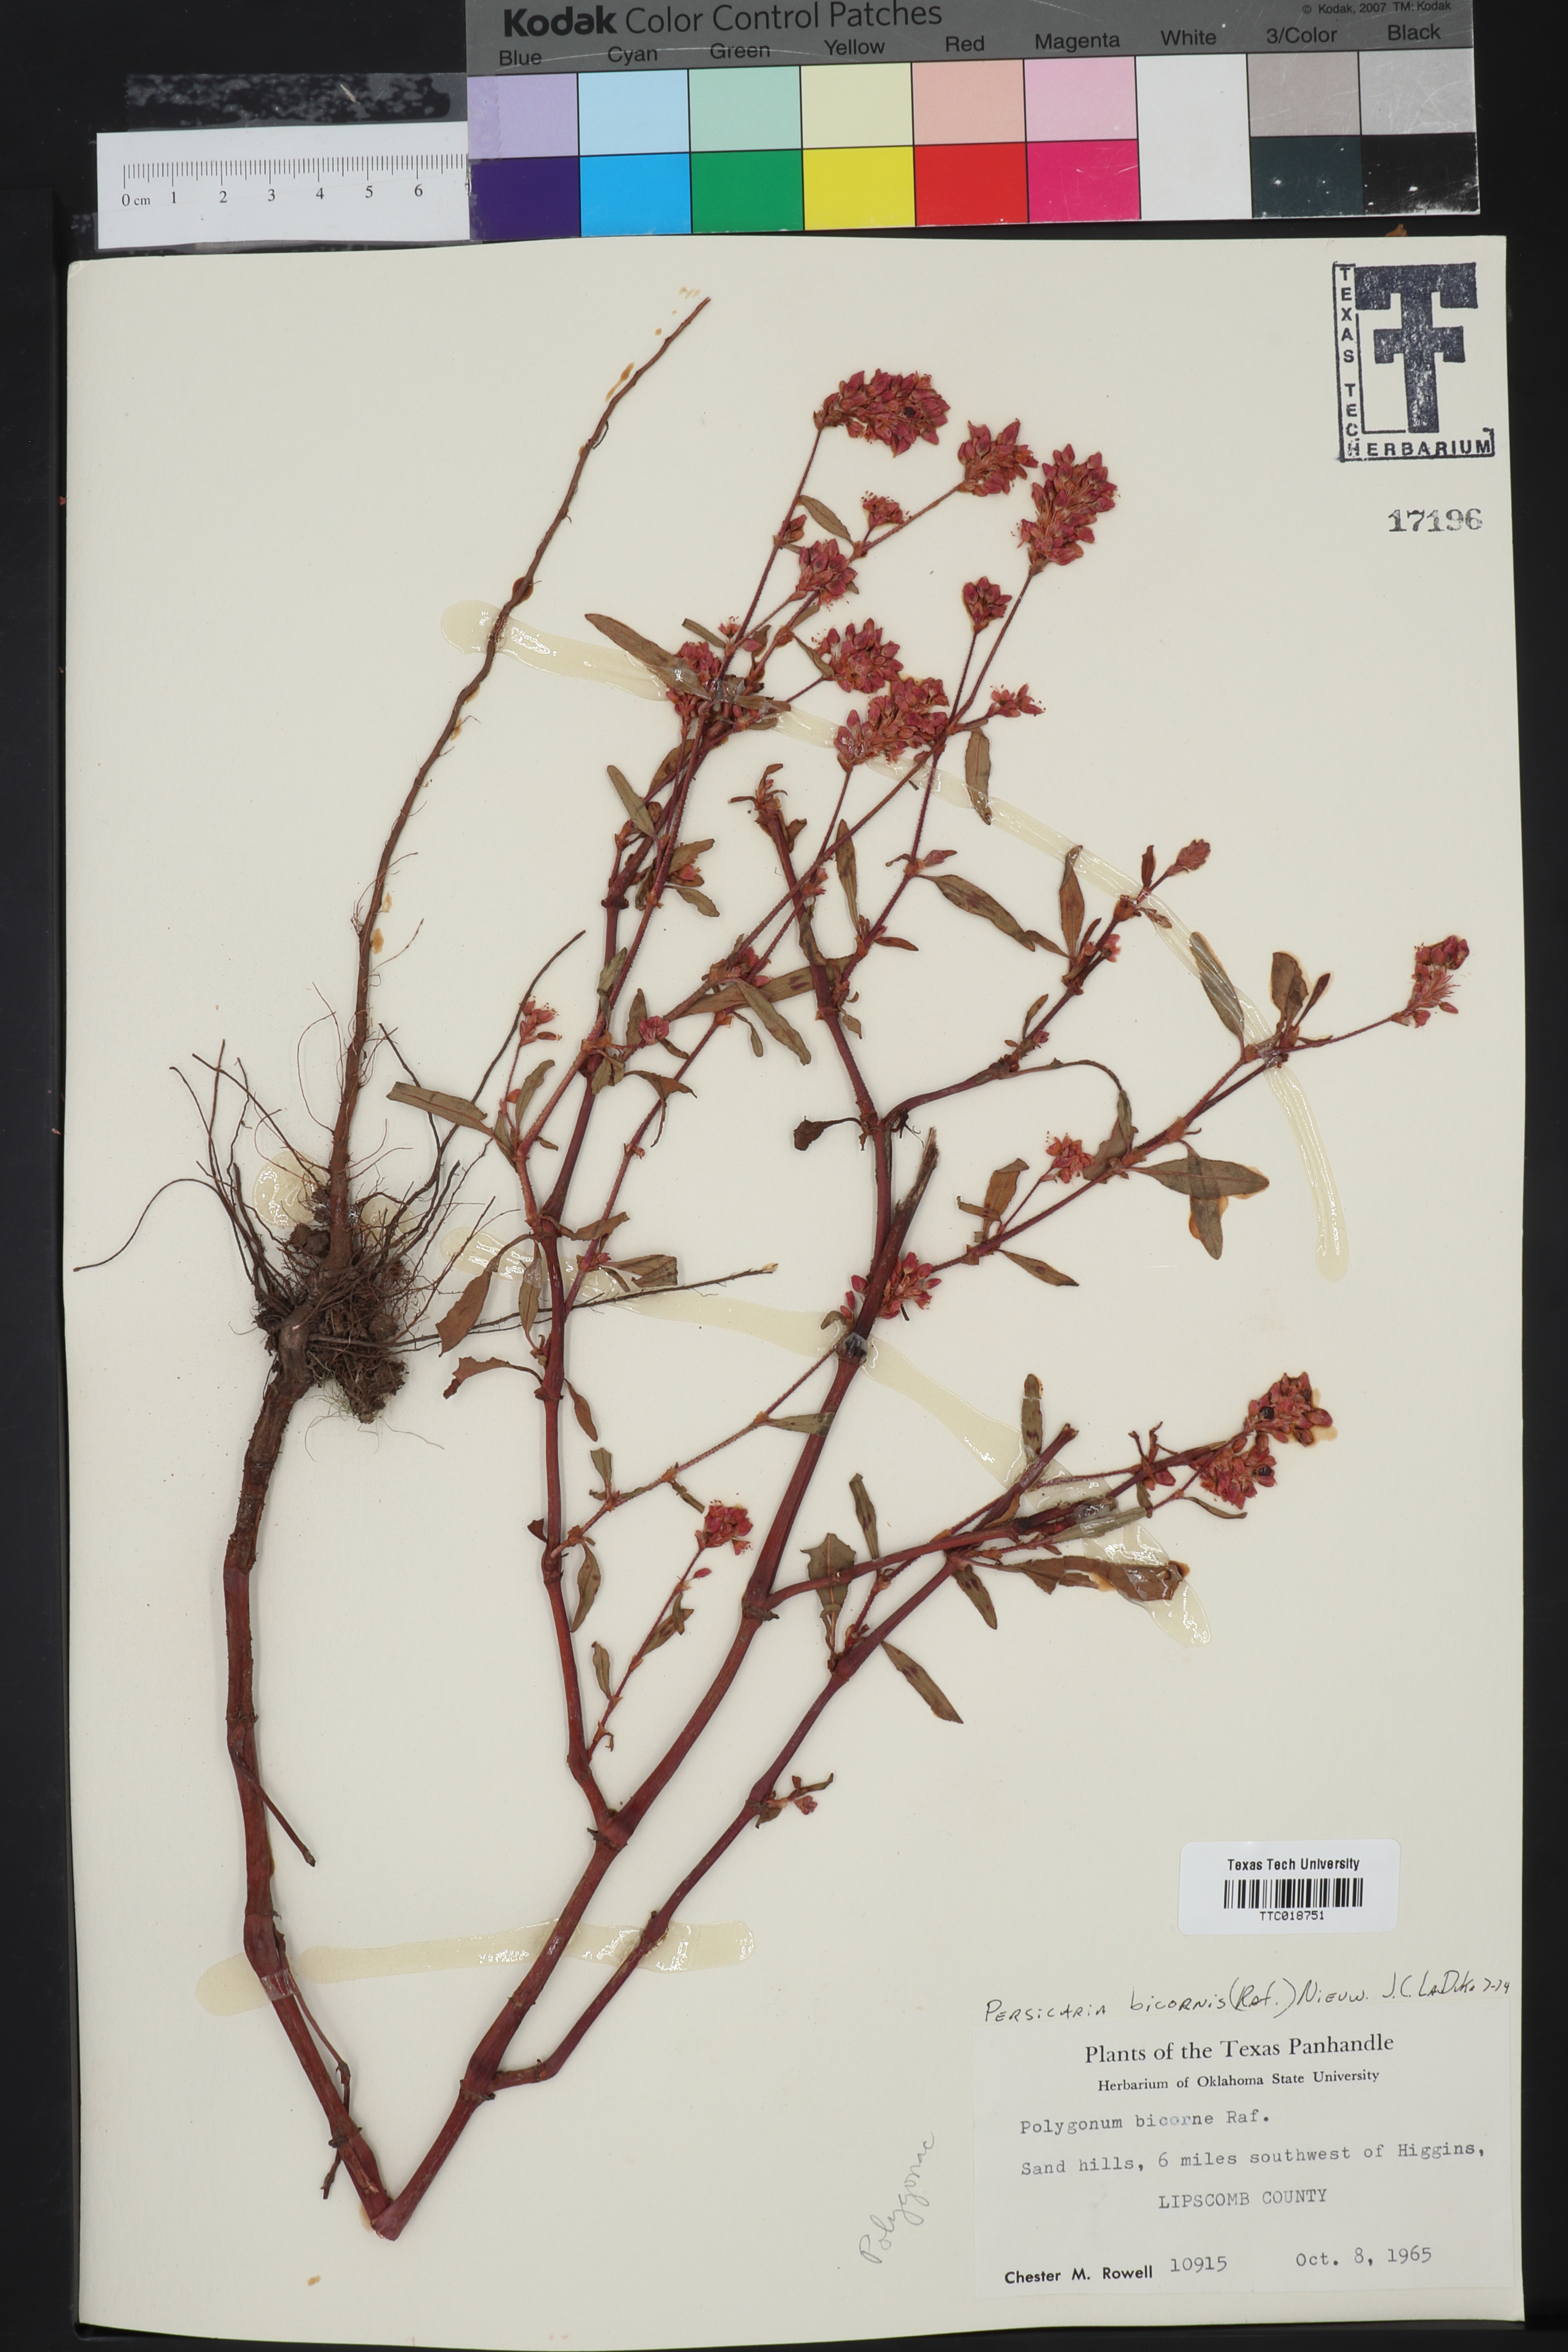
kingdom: Plantae
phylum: Tracheophyta
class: Magnoliopsida
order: Caryophyllales
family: Polygonaceae
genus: Persicaria
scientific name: Persicaria bicornis
